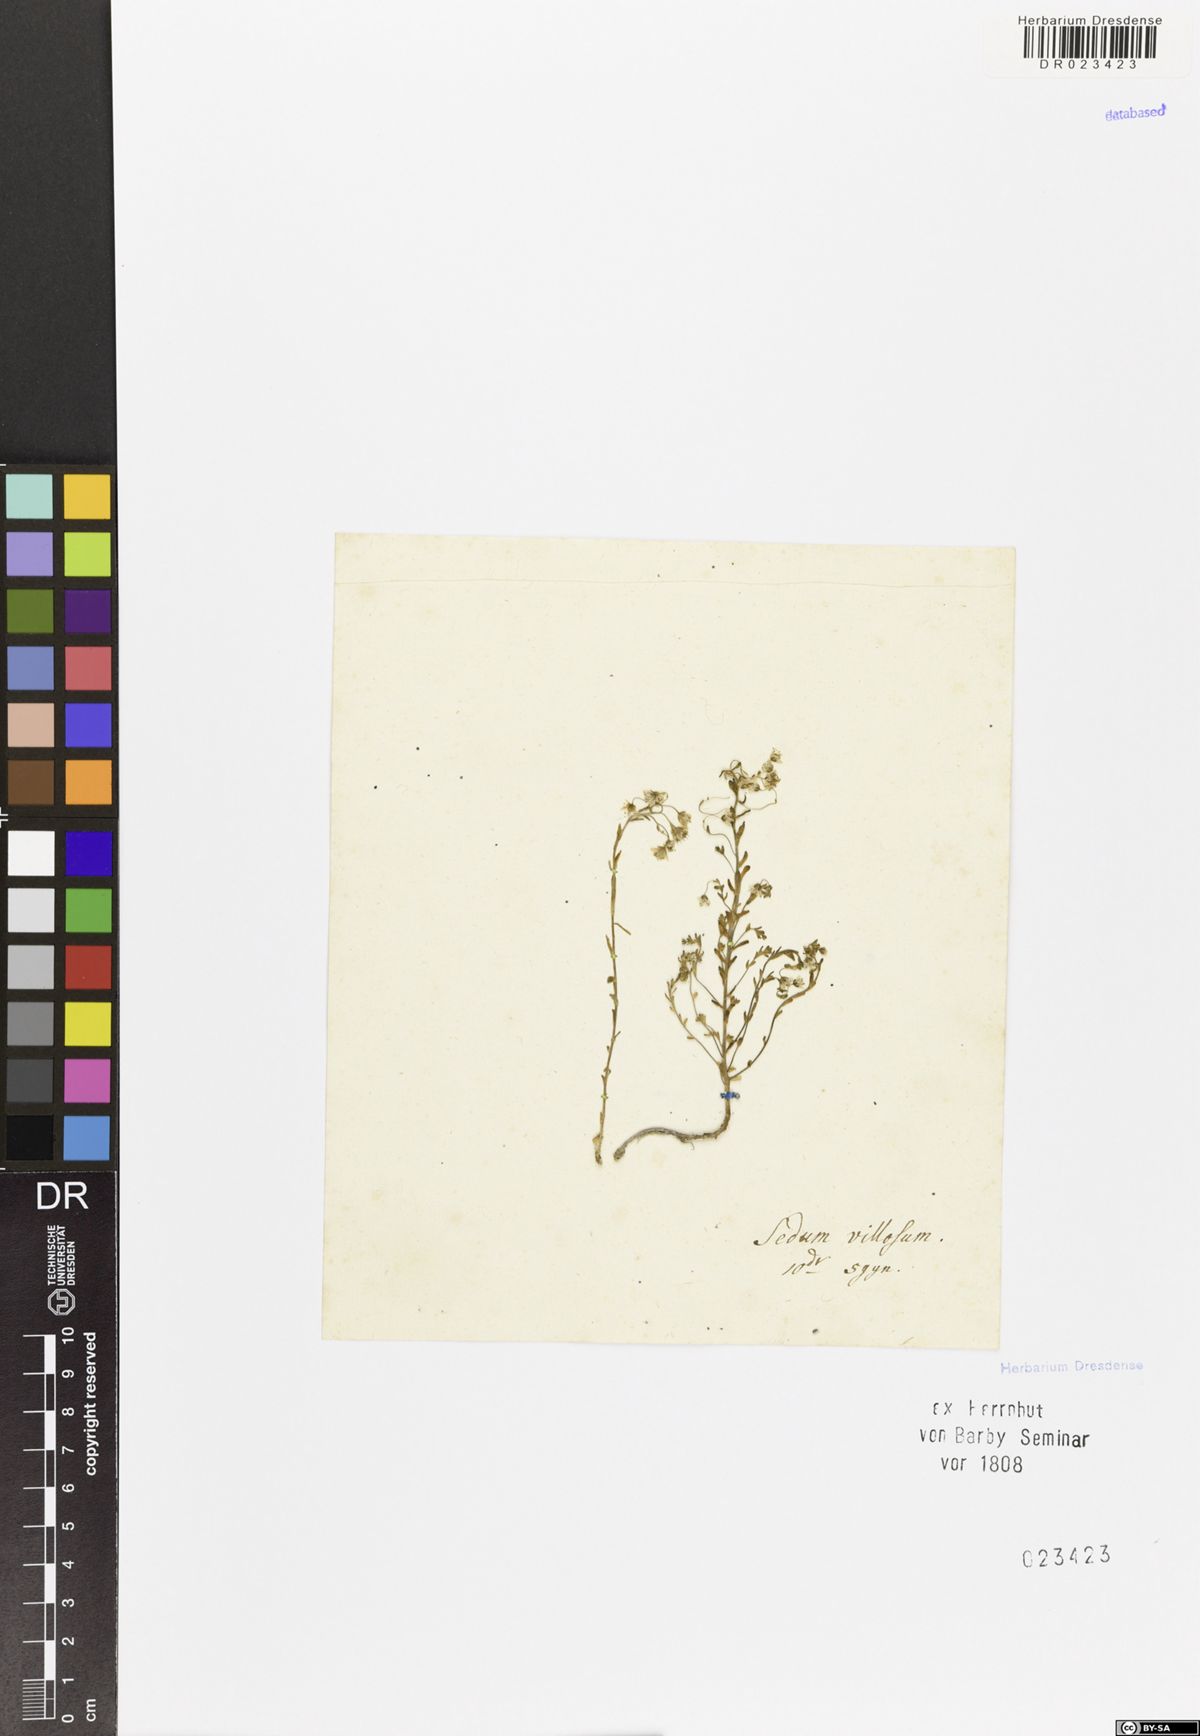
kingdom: Plantae
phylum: Tracheophyta
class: Magnoliopsida
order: Saxifragales
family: Crassulaceae
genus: Sedum
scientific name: Sedum villosum
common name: Hairy stonecrop
